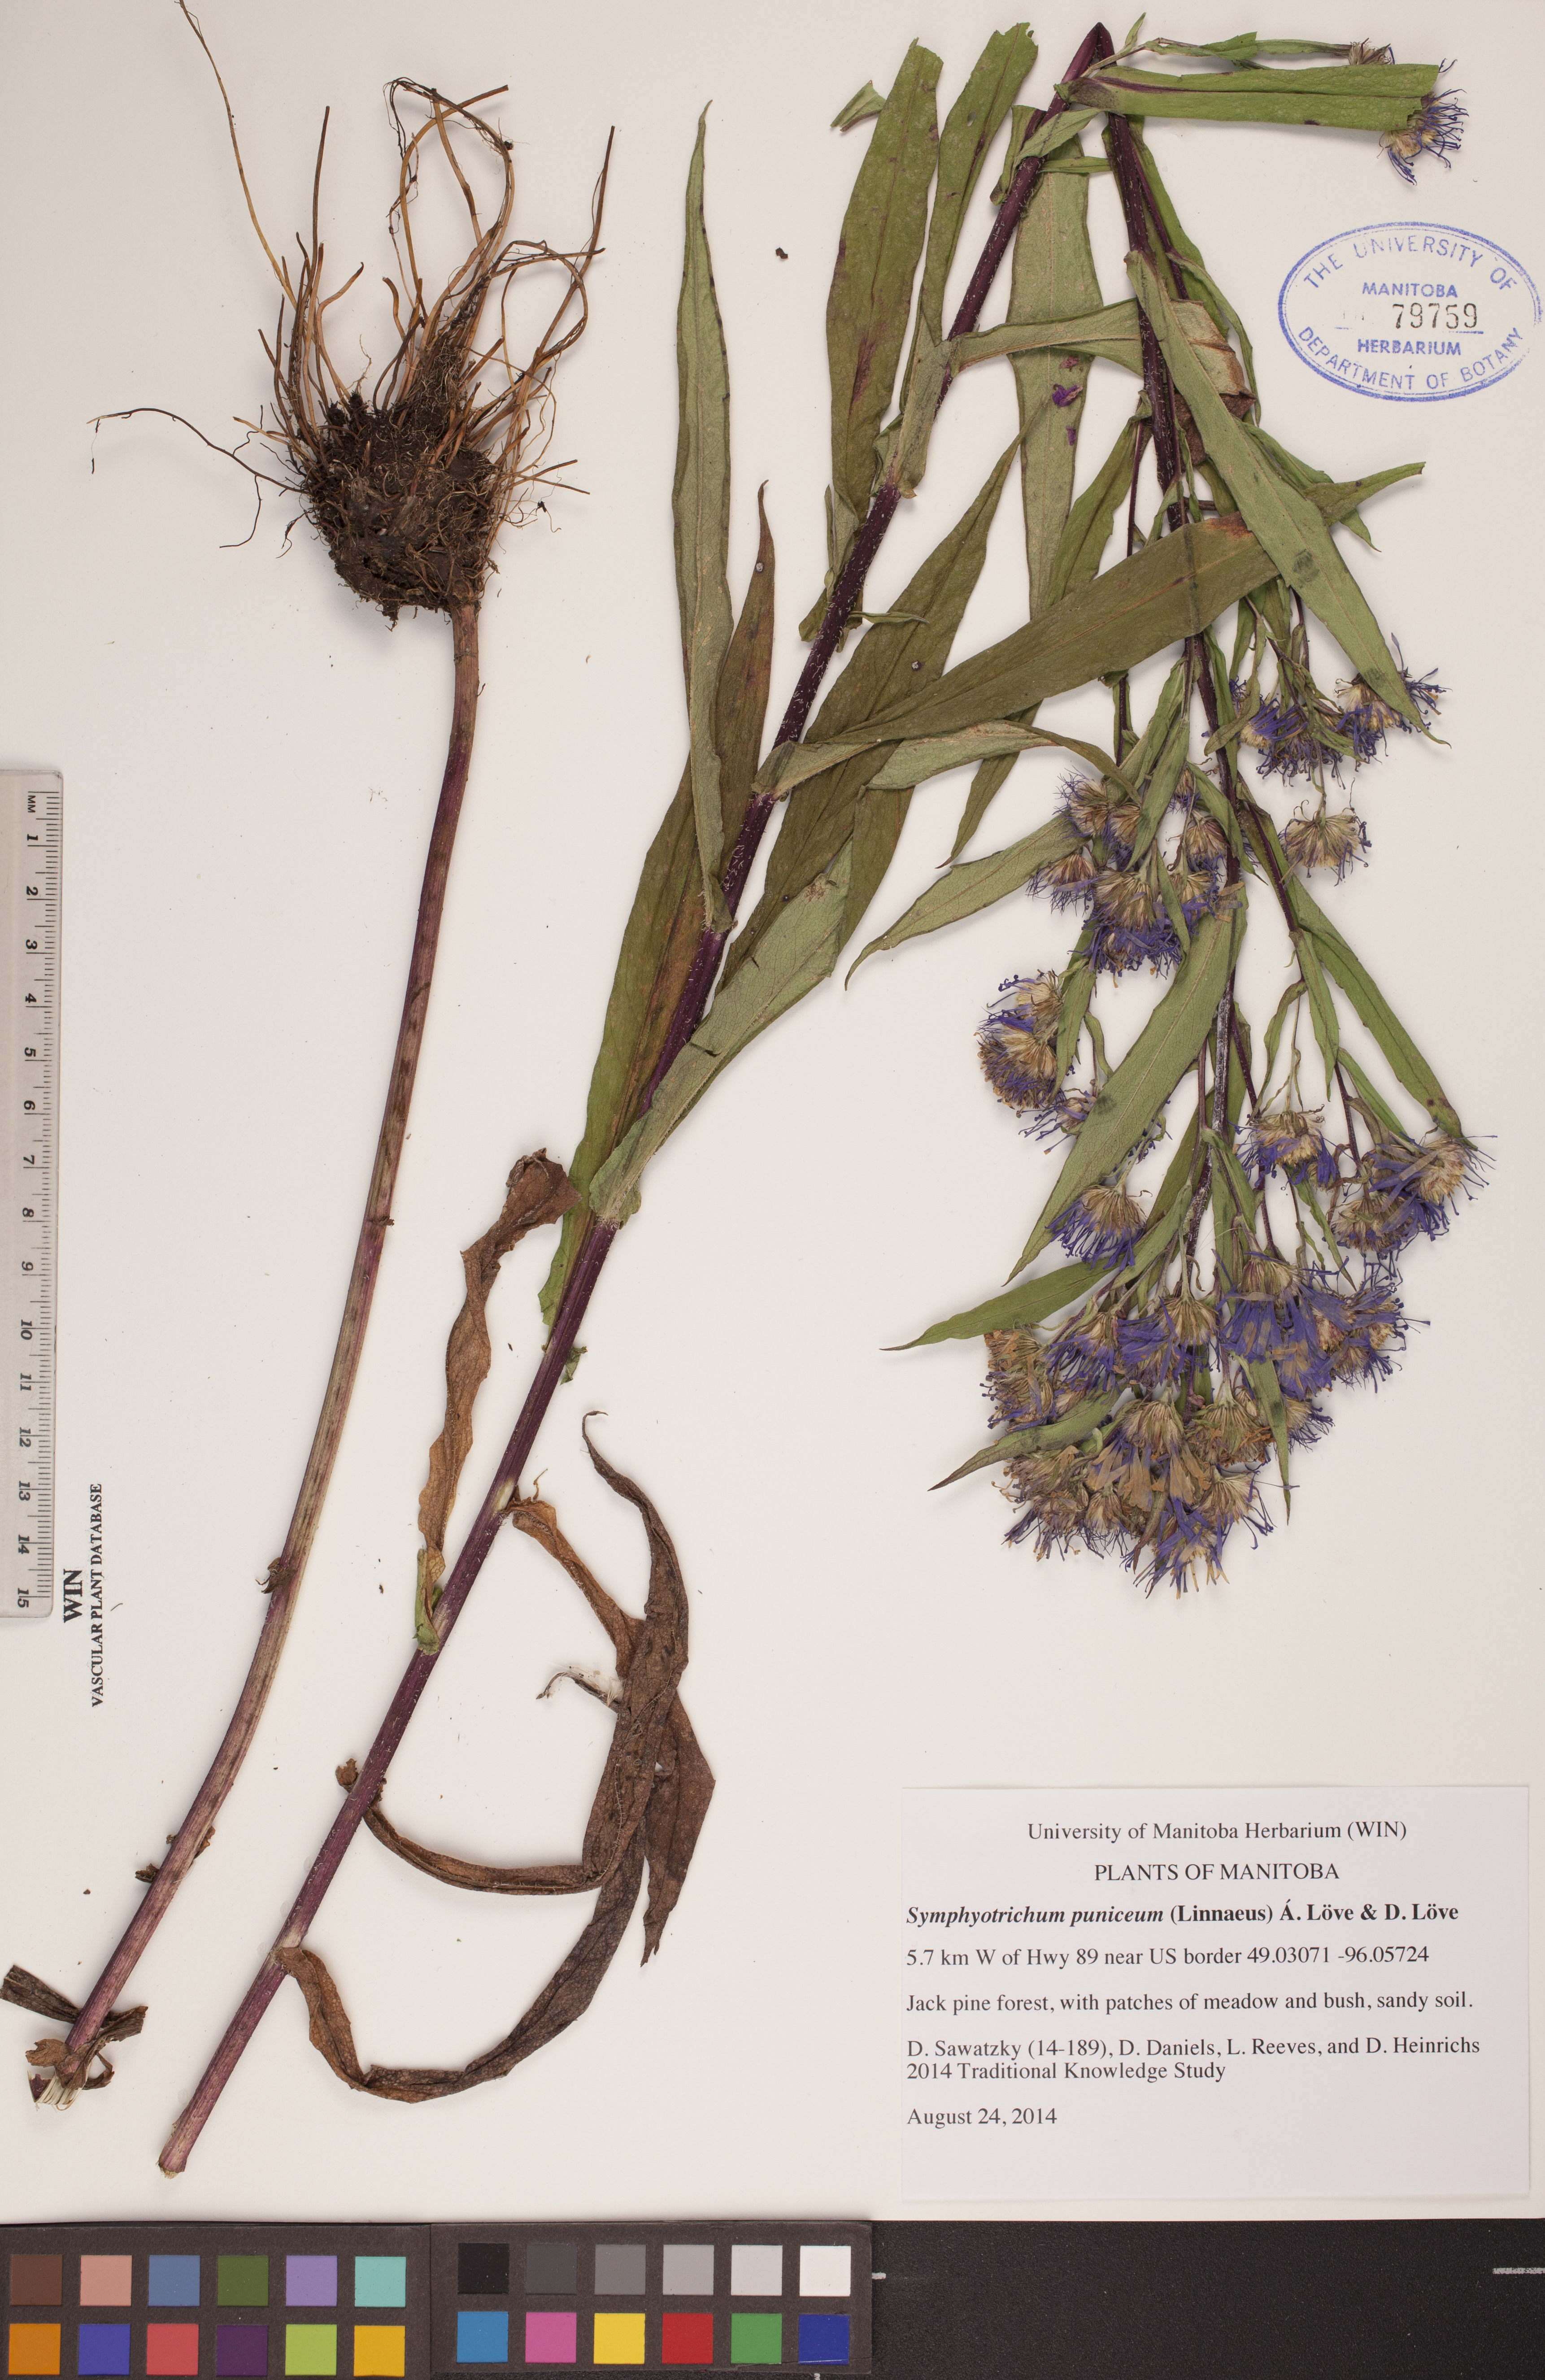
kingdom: Plantae
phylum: Tracheophyta
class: Magnoliopsida
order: Asterales
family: Asteraceae
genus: Symphyotrichum
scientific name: Symphyotrichum puniceum
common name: Bog aster
